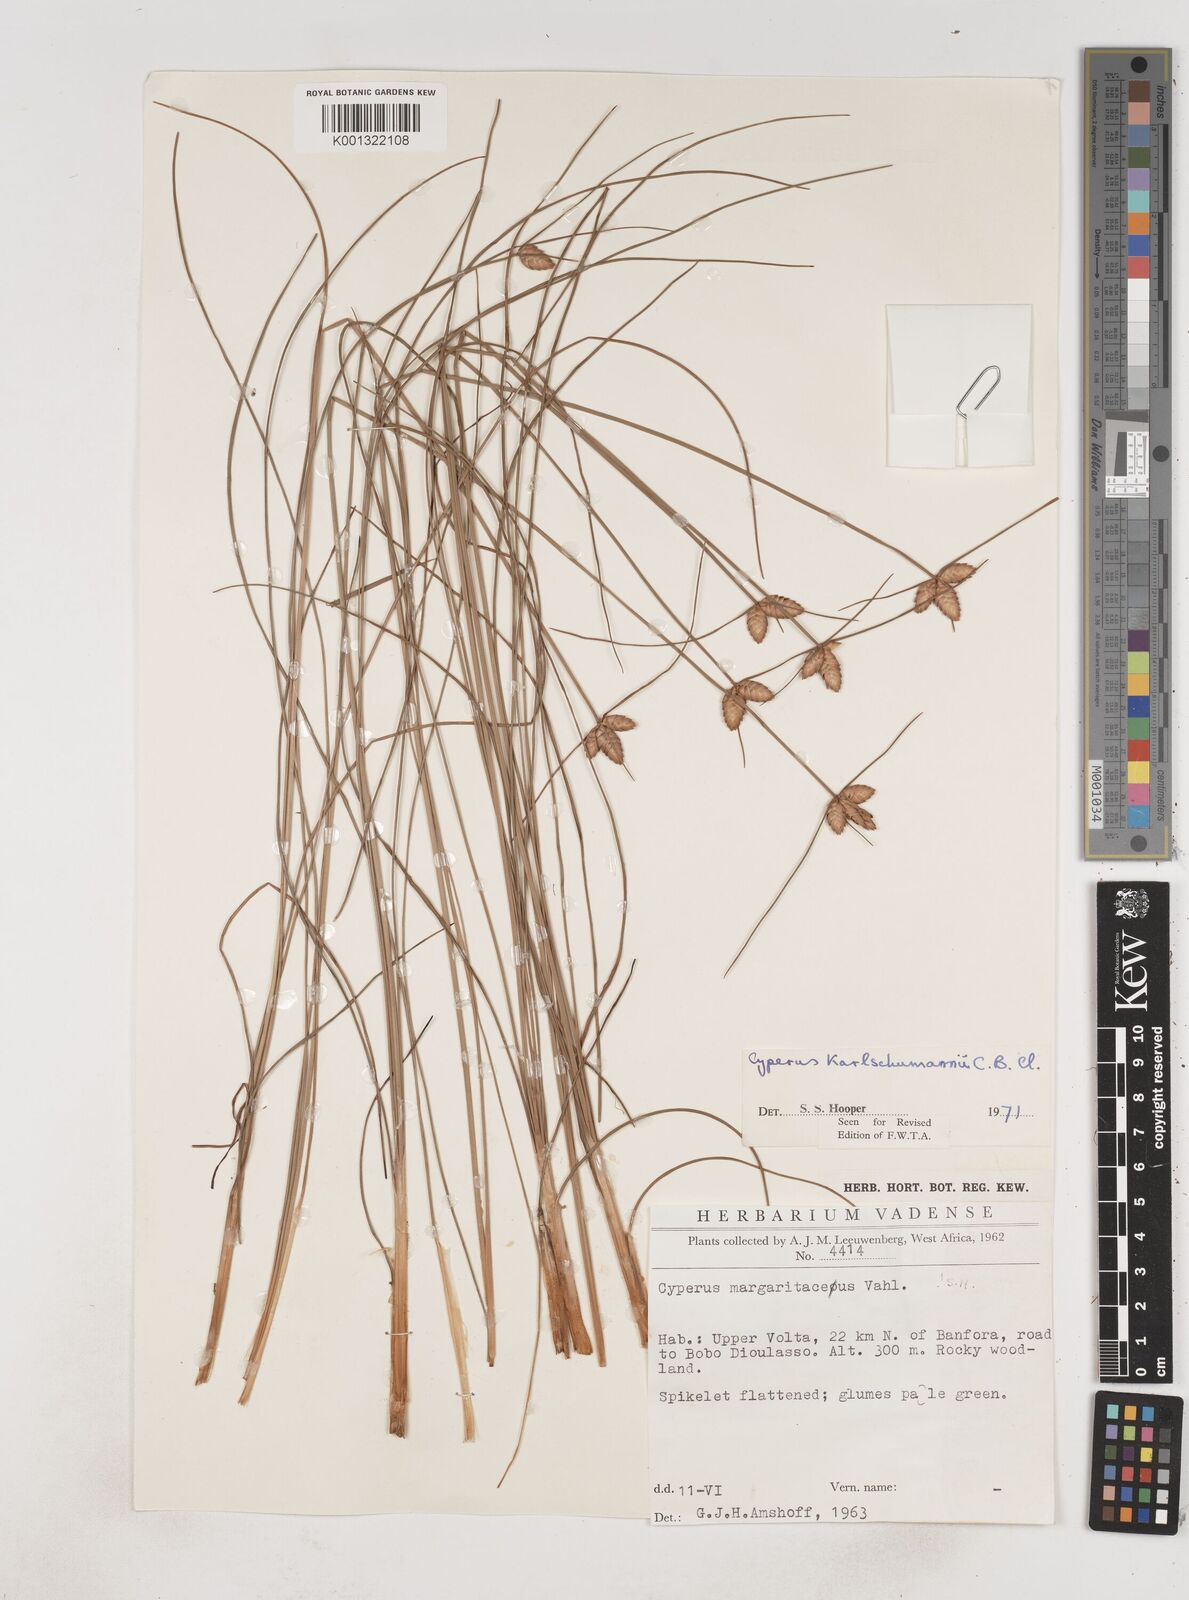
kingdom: Plantae
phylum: Tracheophyta
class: Liliopsida
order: Poales
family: Cyperaceae
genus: Cyperus
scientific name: Cyperus karlschumannii
